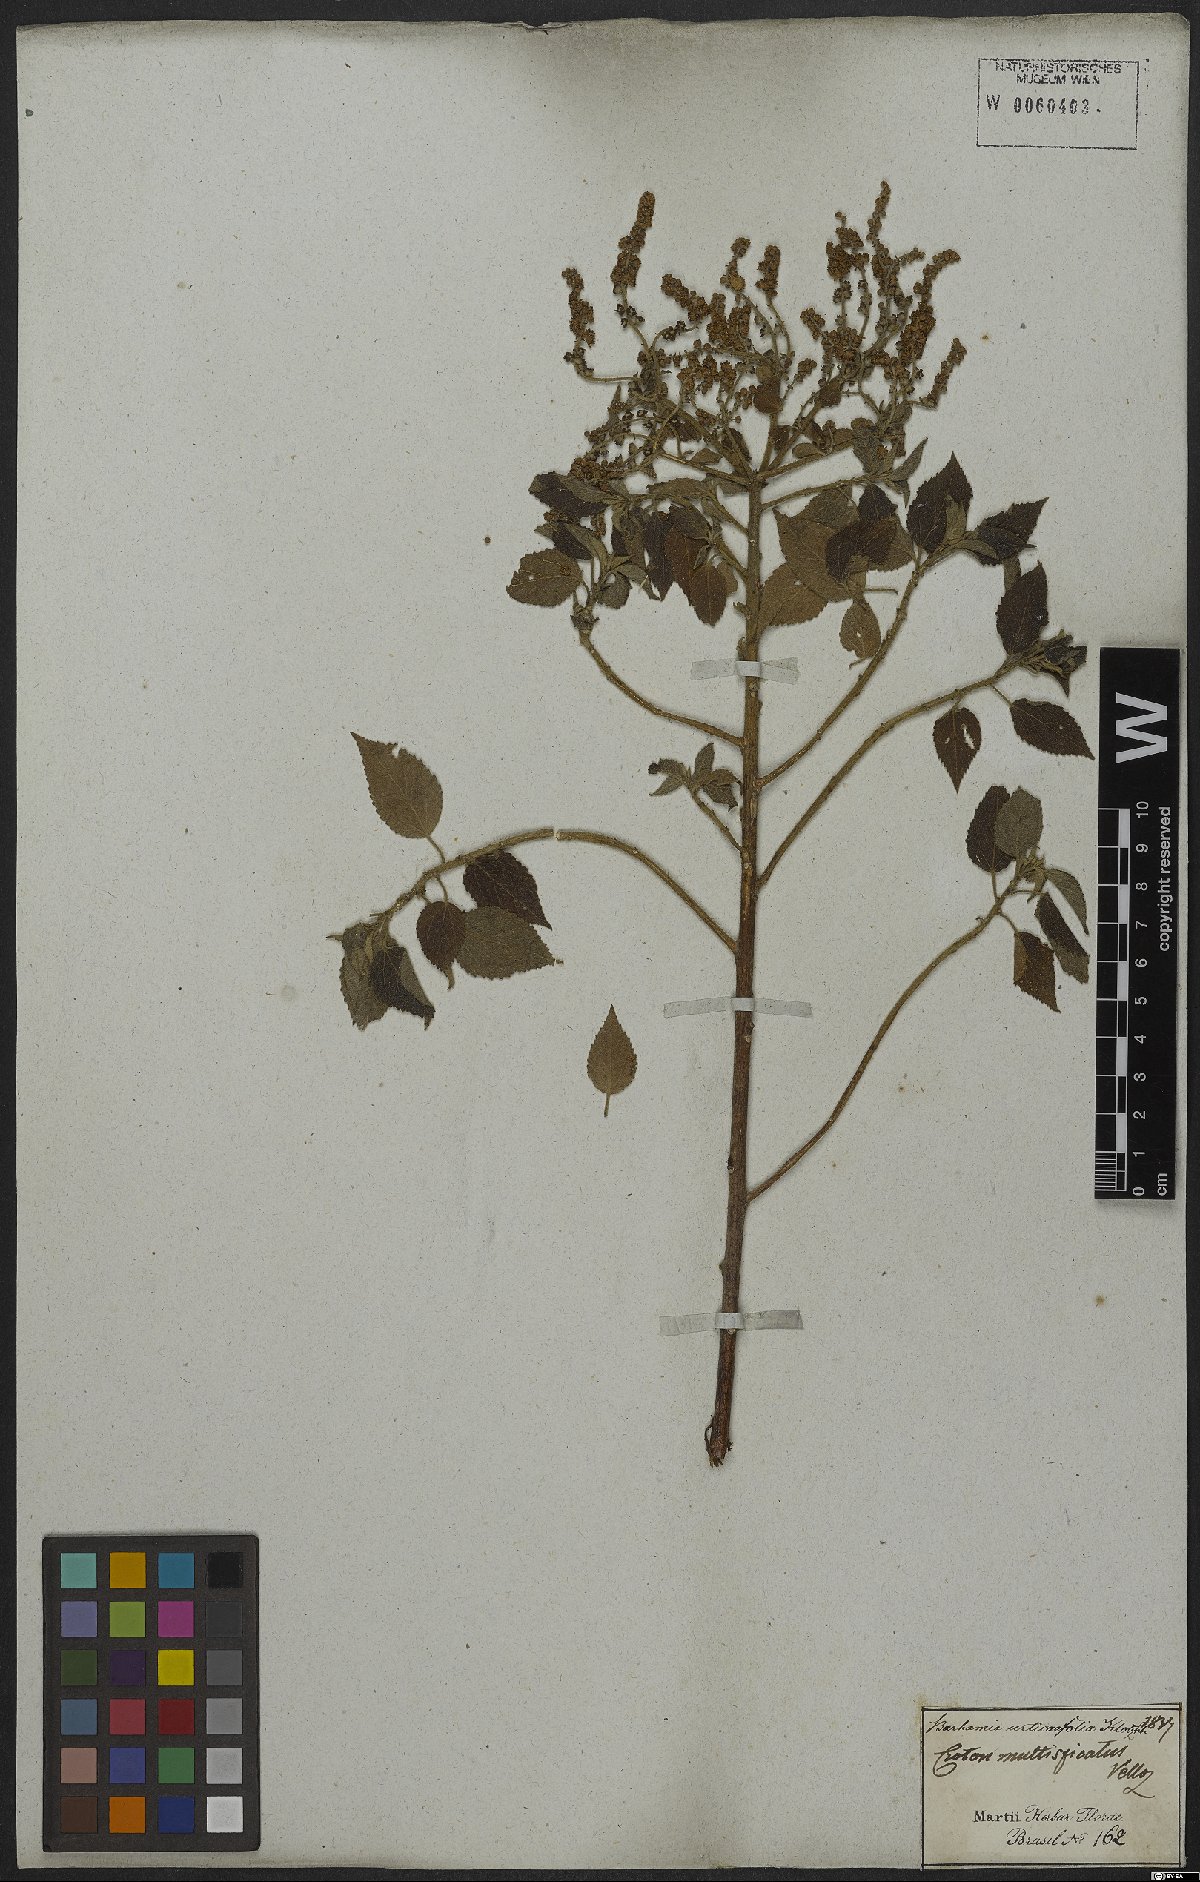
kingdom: Plantae
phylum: Tracheophyta
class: Magnoliopsida
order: Malpighiales
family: Euphorbiaceae
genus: Croton
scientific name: Croton urticifolius
